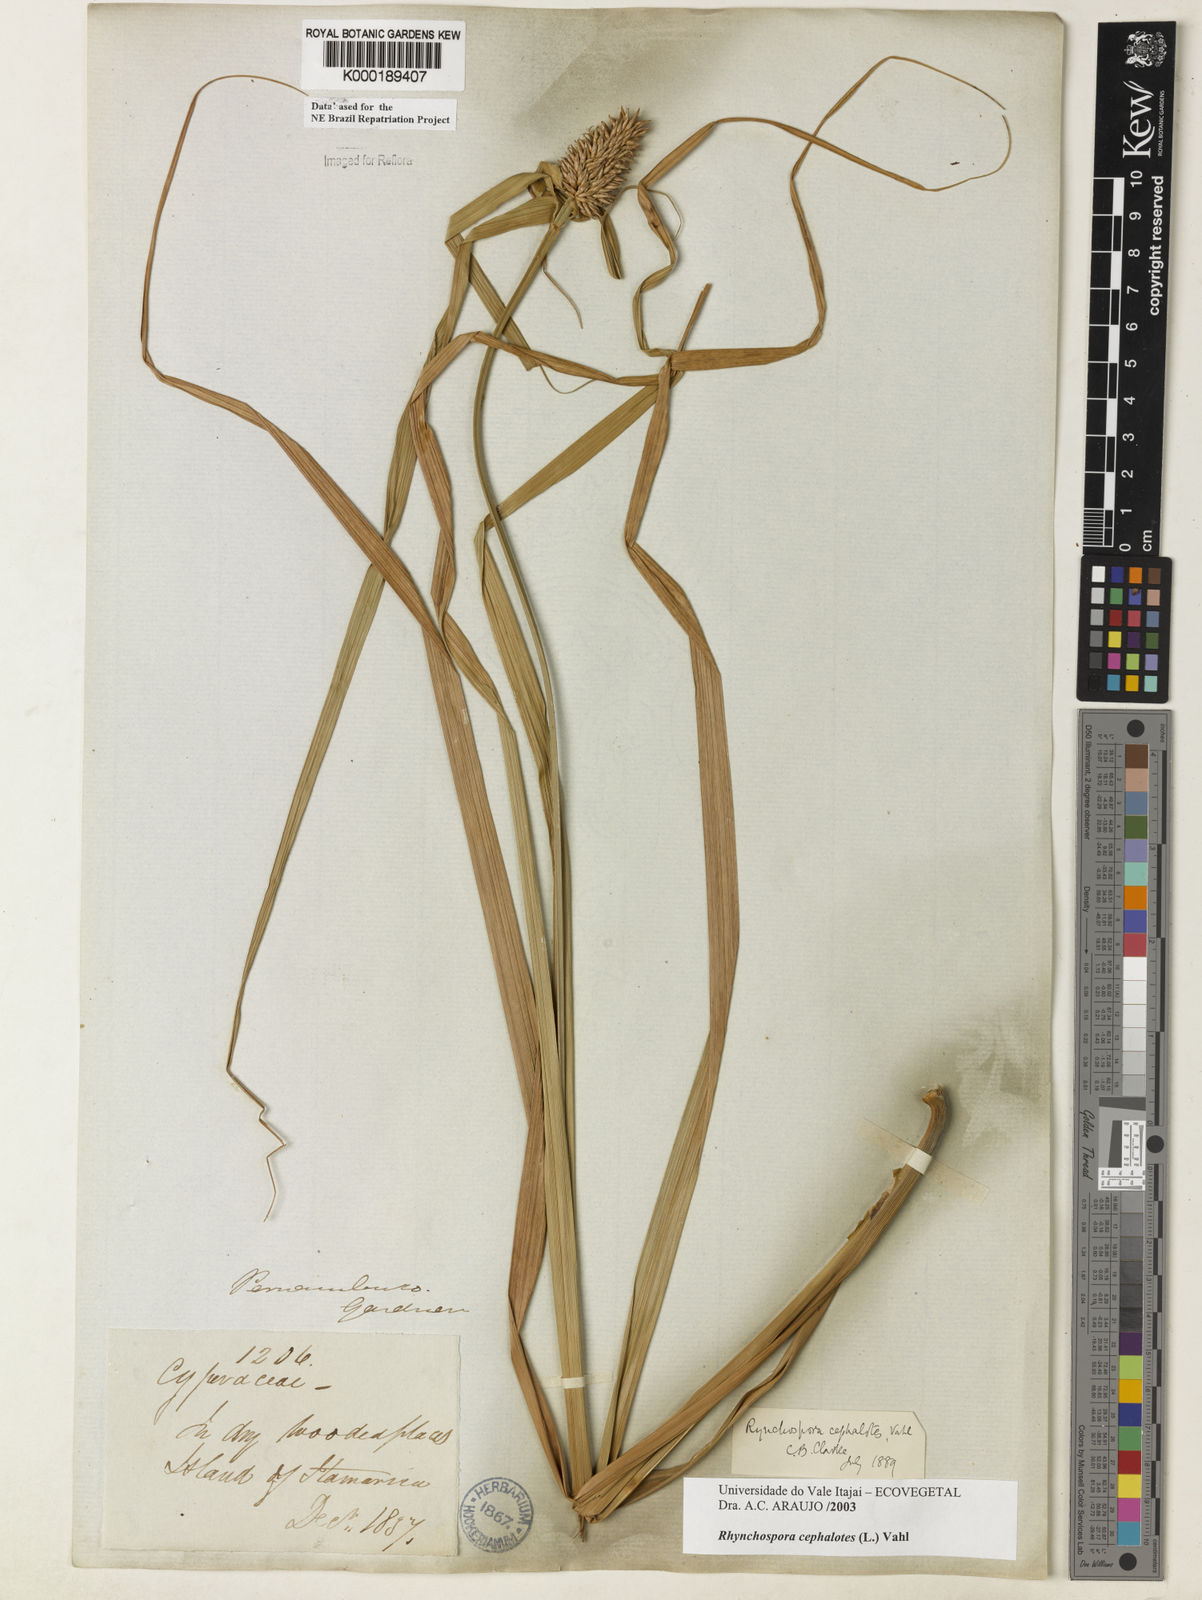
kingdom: Plantae
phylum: Tracheophyta
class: Liliopsida
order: Poales
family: Cyperaceae
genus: Rhynchospora
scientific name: Rhynchospora cephalotes
